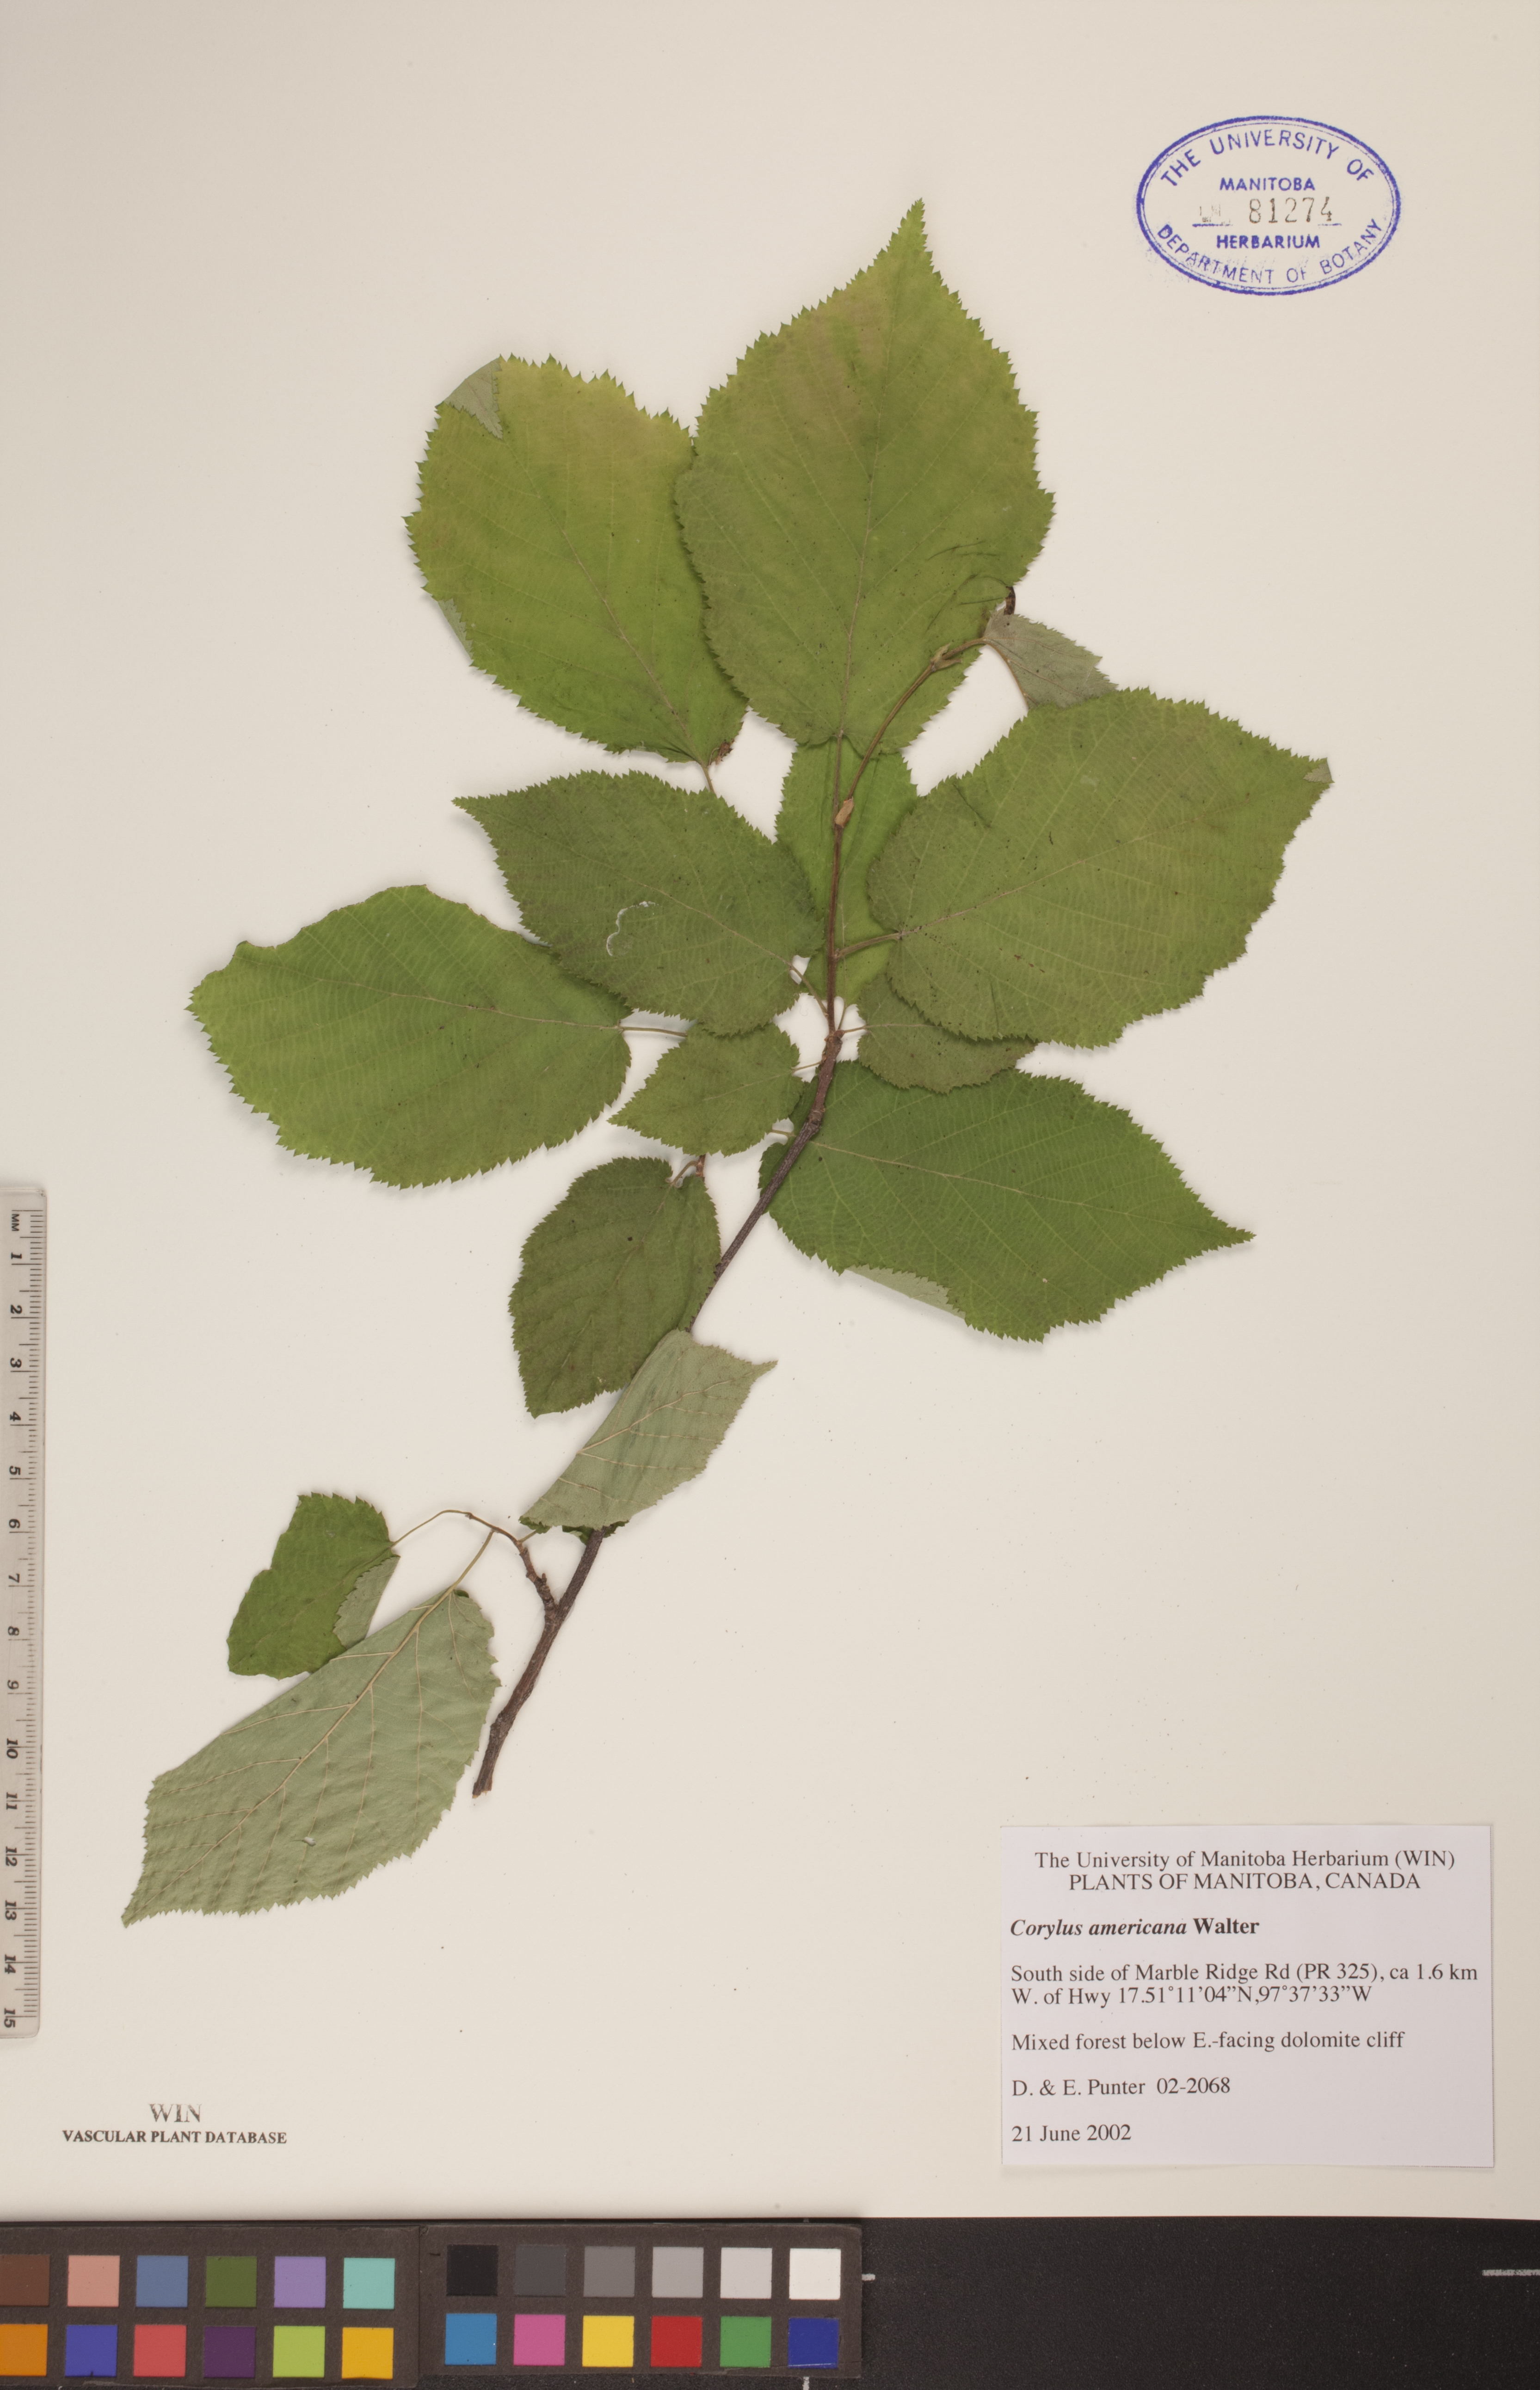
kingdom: Plantae
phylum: Tracheophyta
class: Magnoliopsida
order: Fagales
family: Betulaceae
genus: Corylus
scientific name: Corylus americana
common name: American hazel
